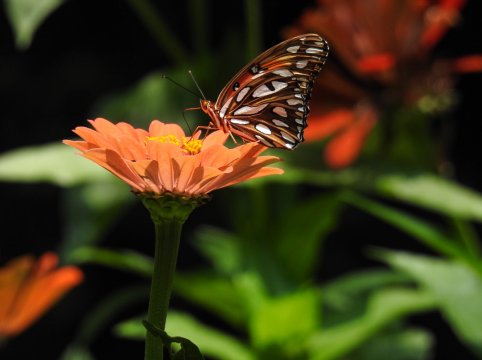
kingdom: Animalia
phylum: Arthropoda
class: Insecta
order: Lepidoptera
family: Nymphalidae
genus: Dione
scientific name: Dione vanillae
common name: Gulf Fritillary
